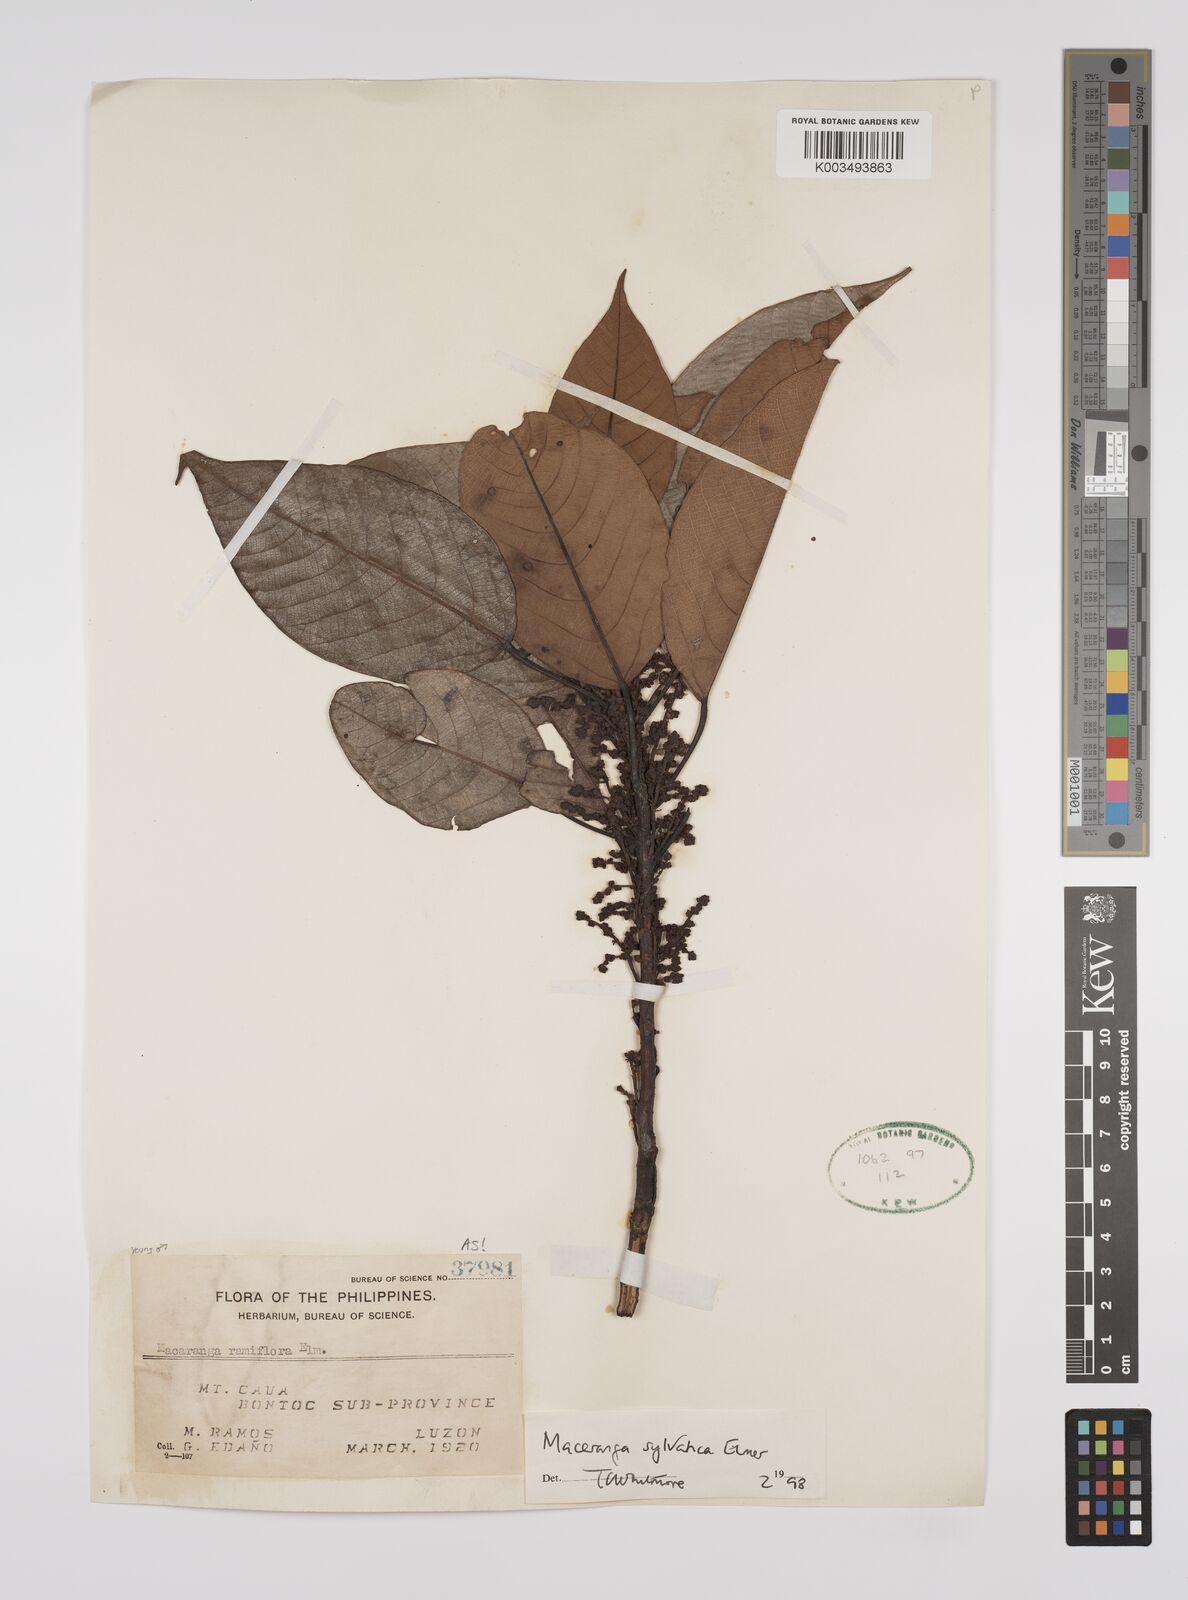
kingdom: Plantae
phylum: Tracheophyta
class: Magnoliopsida
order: Malpighiales
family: Euphorbiaceae
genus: Macaranga
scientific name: Macaranga sylvatica
